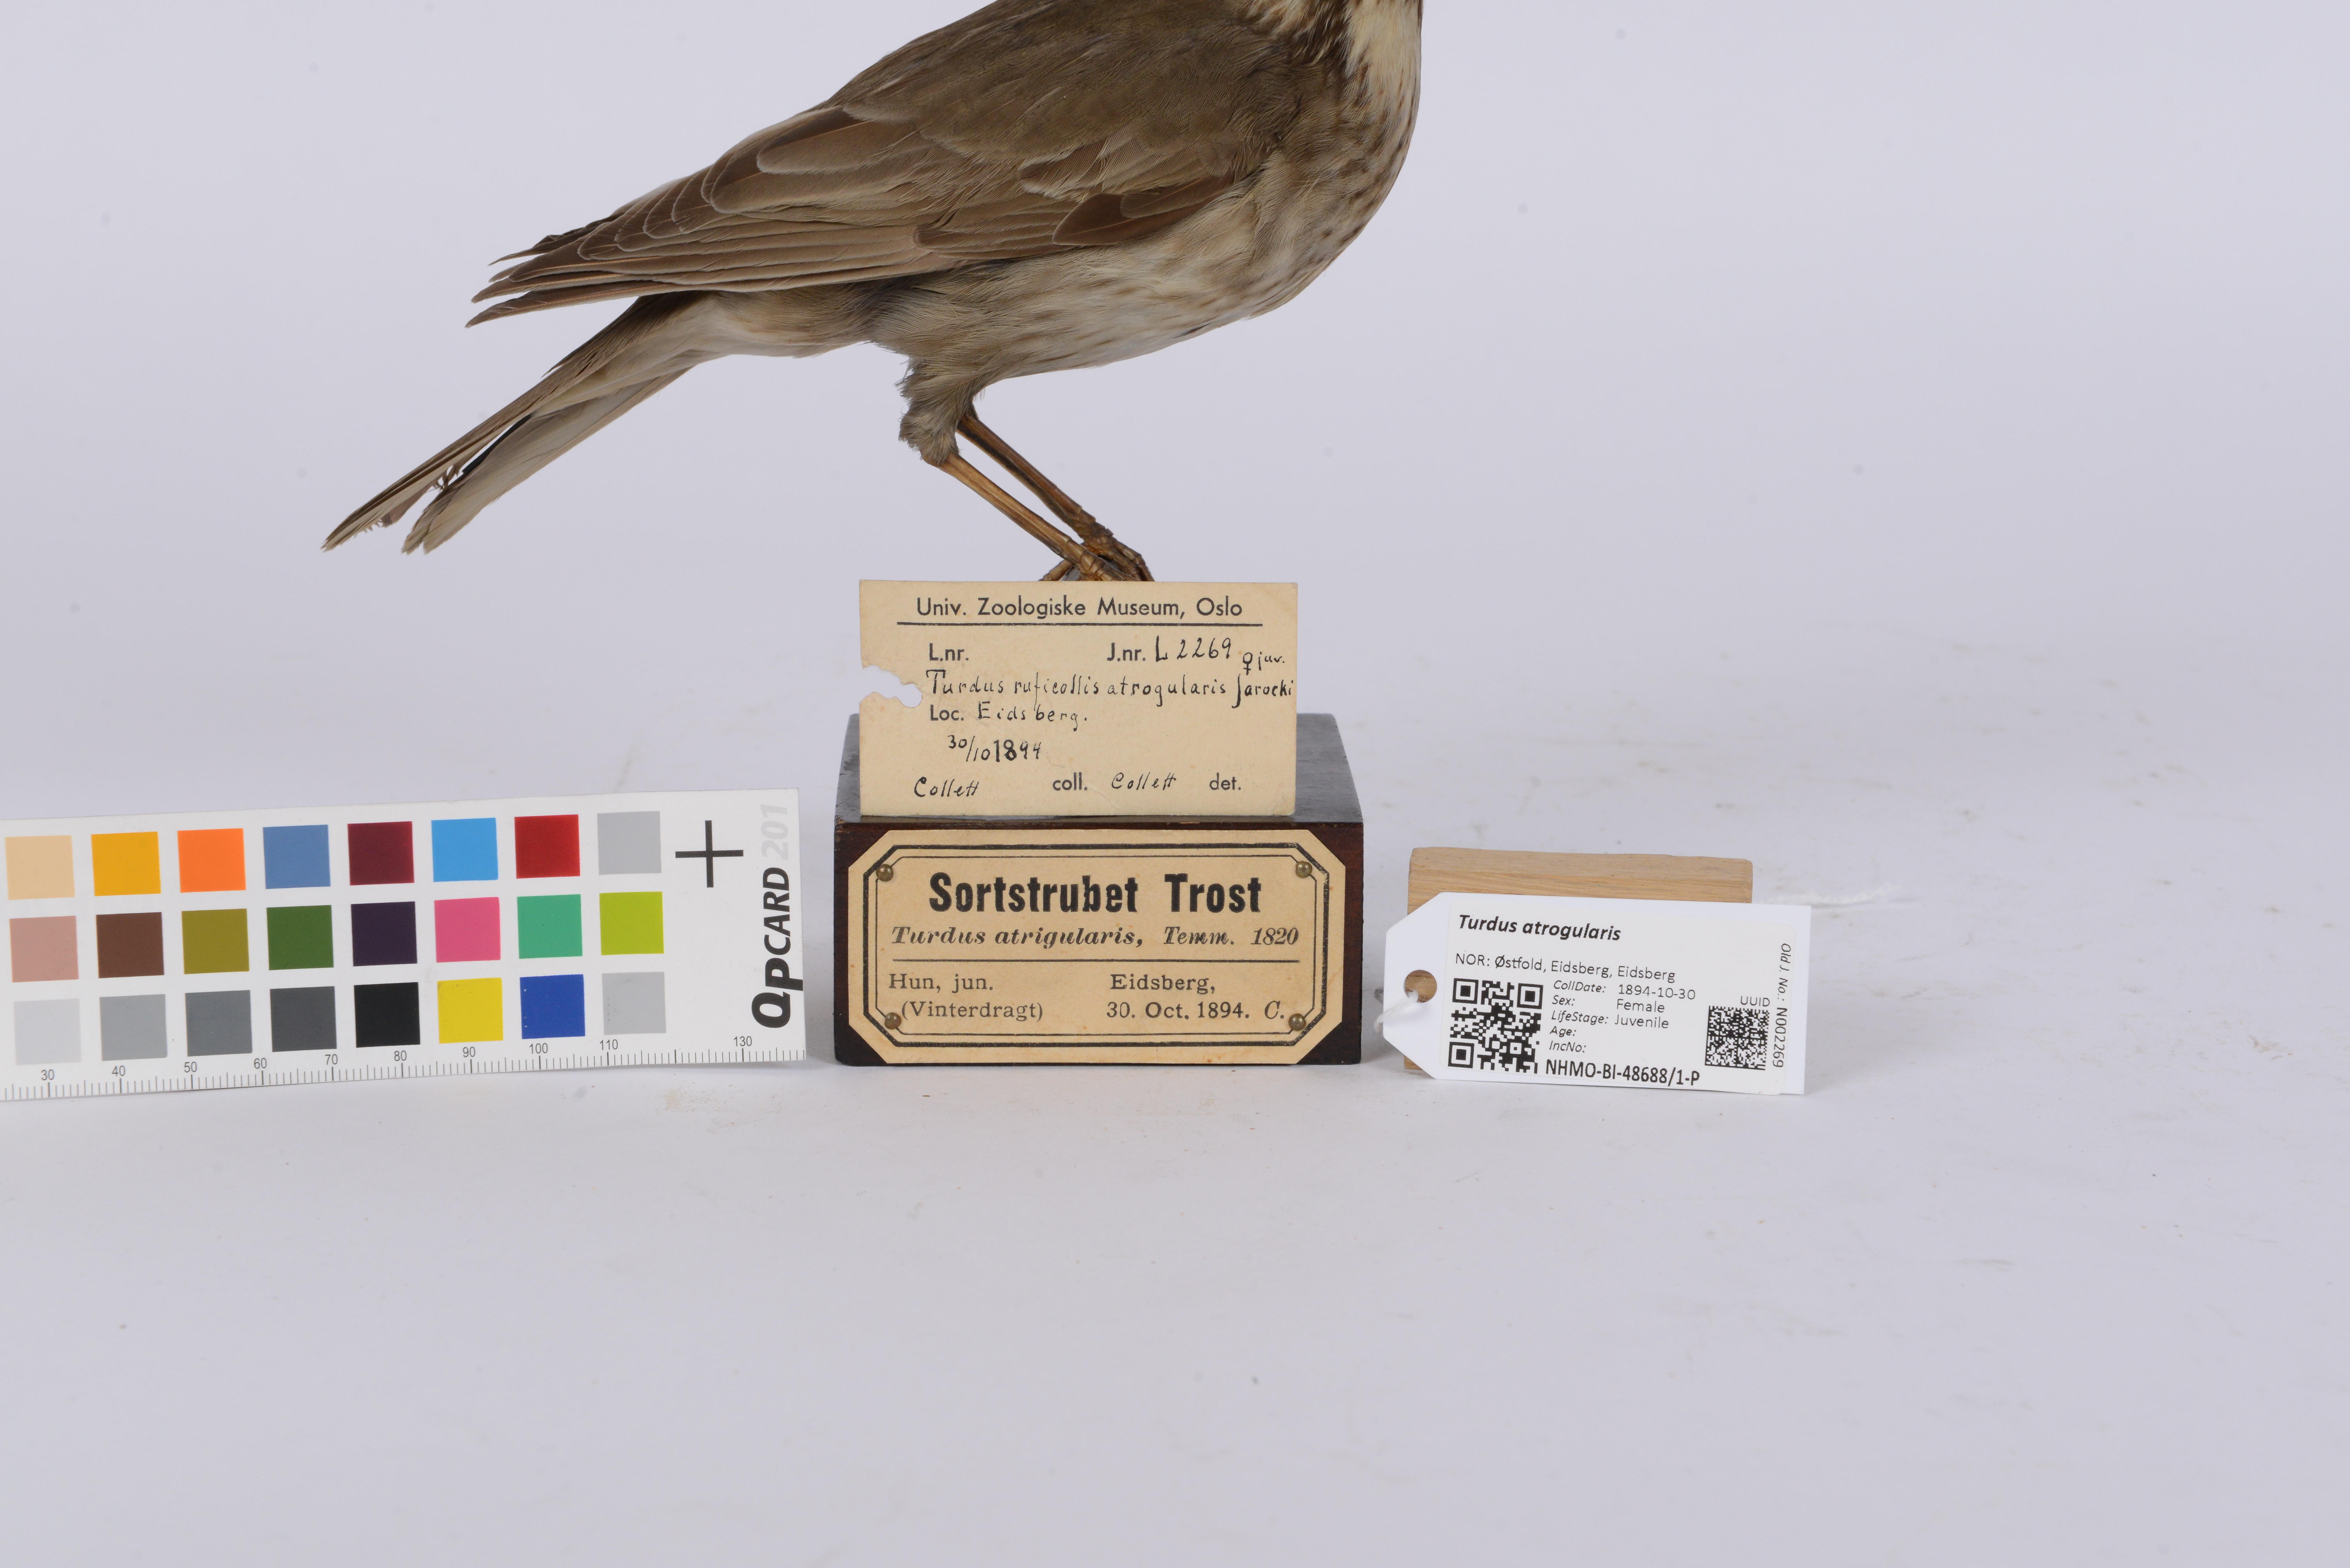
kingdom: Animalia
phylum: Chordata
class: Aves
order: Passeriformes
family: Turdidae
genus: Turdus
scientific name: Turdus atrogularis
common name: Black-throated thrush
